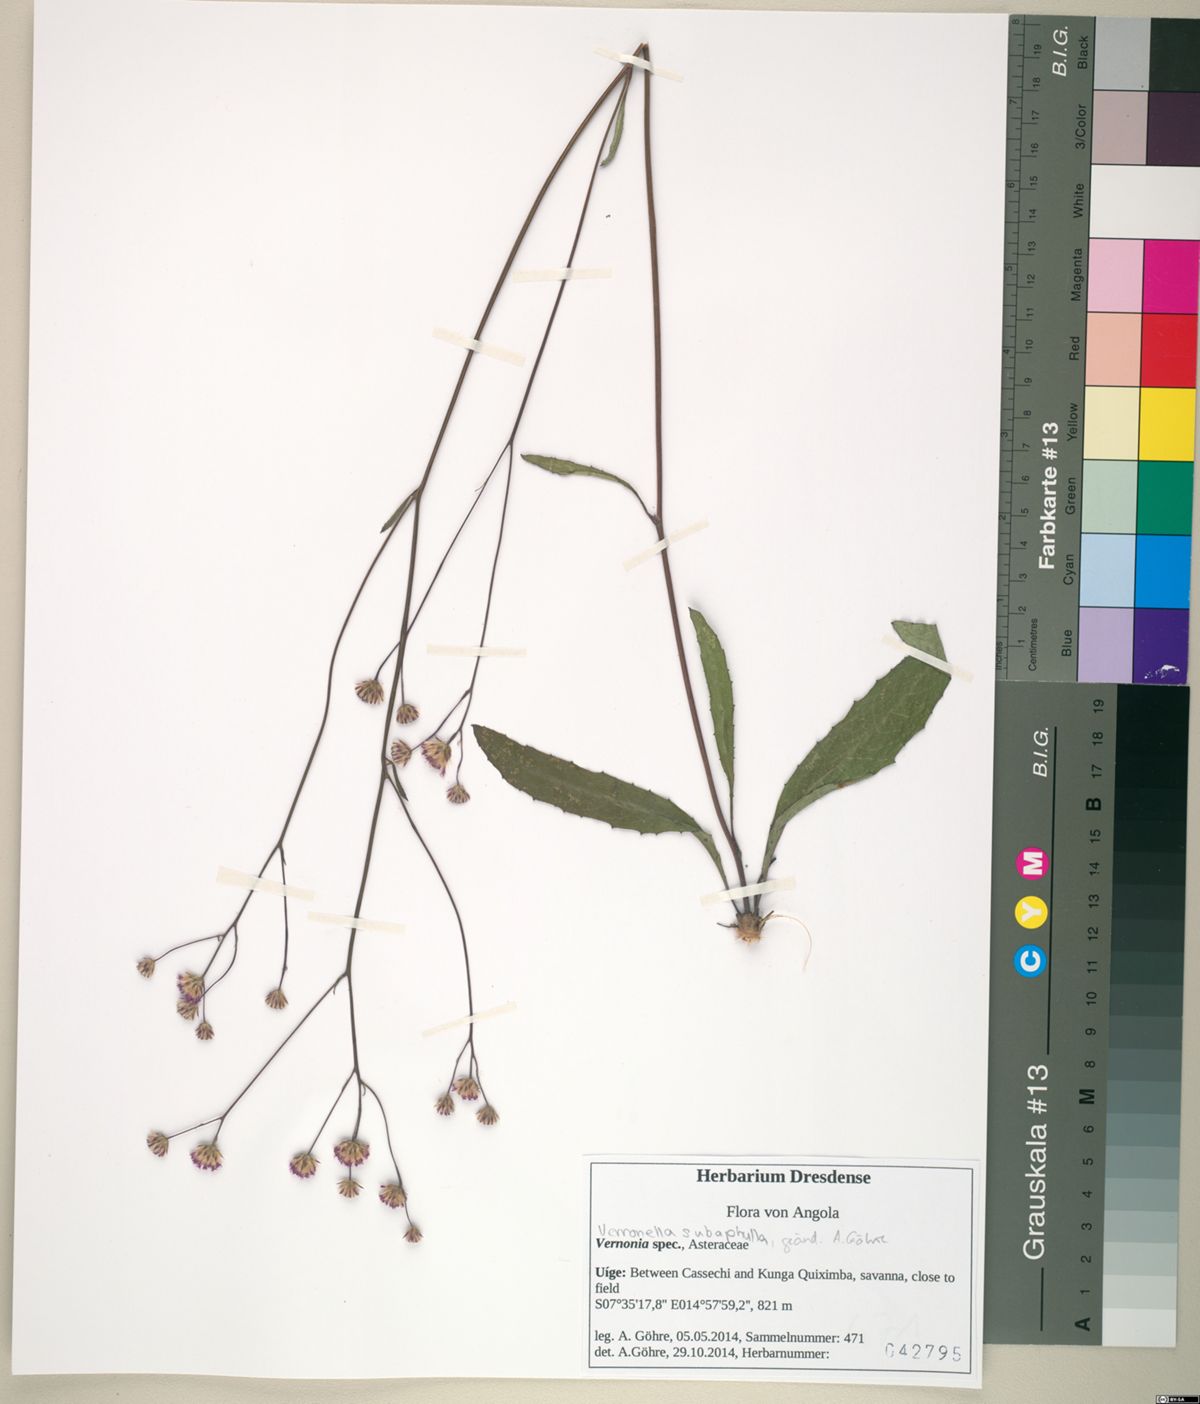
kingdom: Plantae
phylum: Tracheophyta
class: Magnoliopsida
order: Asterales
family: Asteraceae
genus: Vernonella
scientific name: Vernonella subaphylla
